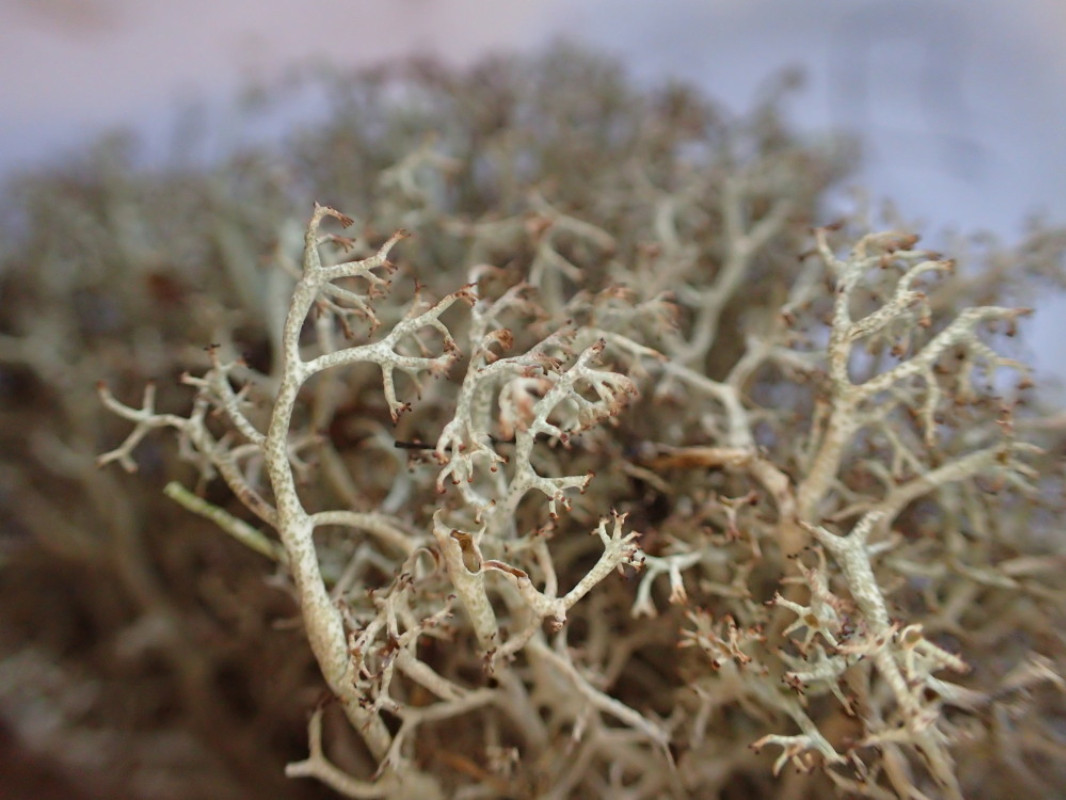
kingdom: Fungi
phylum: Ascomycota
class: Lecanoromycetes
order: Lecanorales
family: Cladoniaceae
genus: Cladonia
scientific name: Cladonia ciliata
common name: spinkel rensdyrlav
